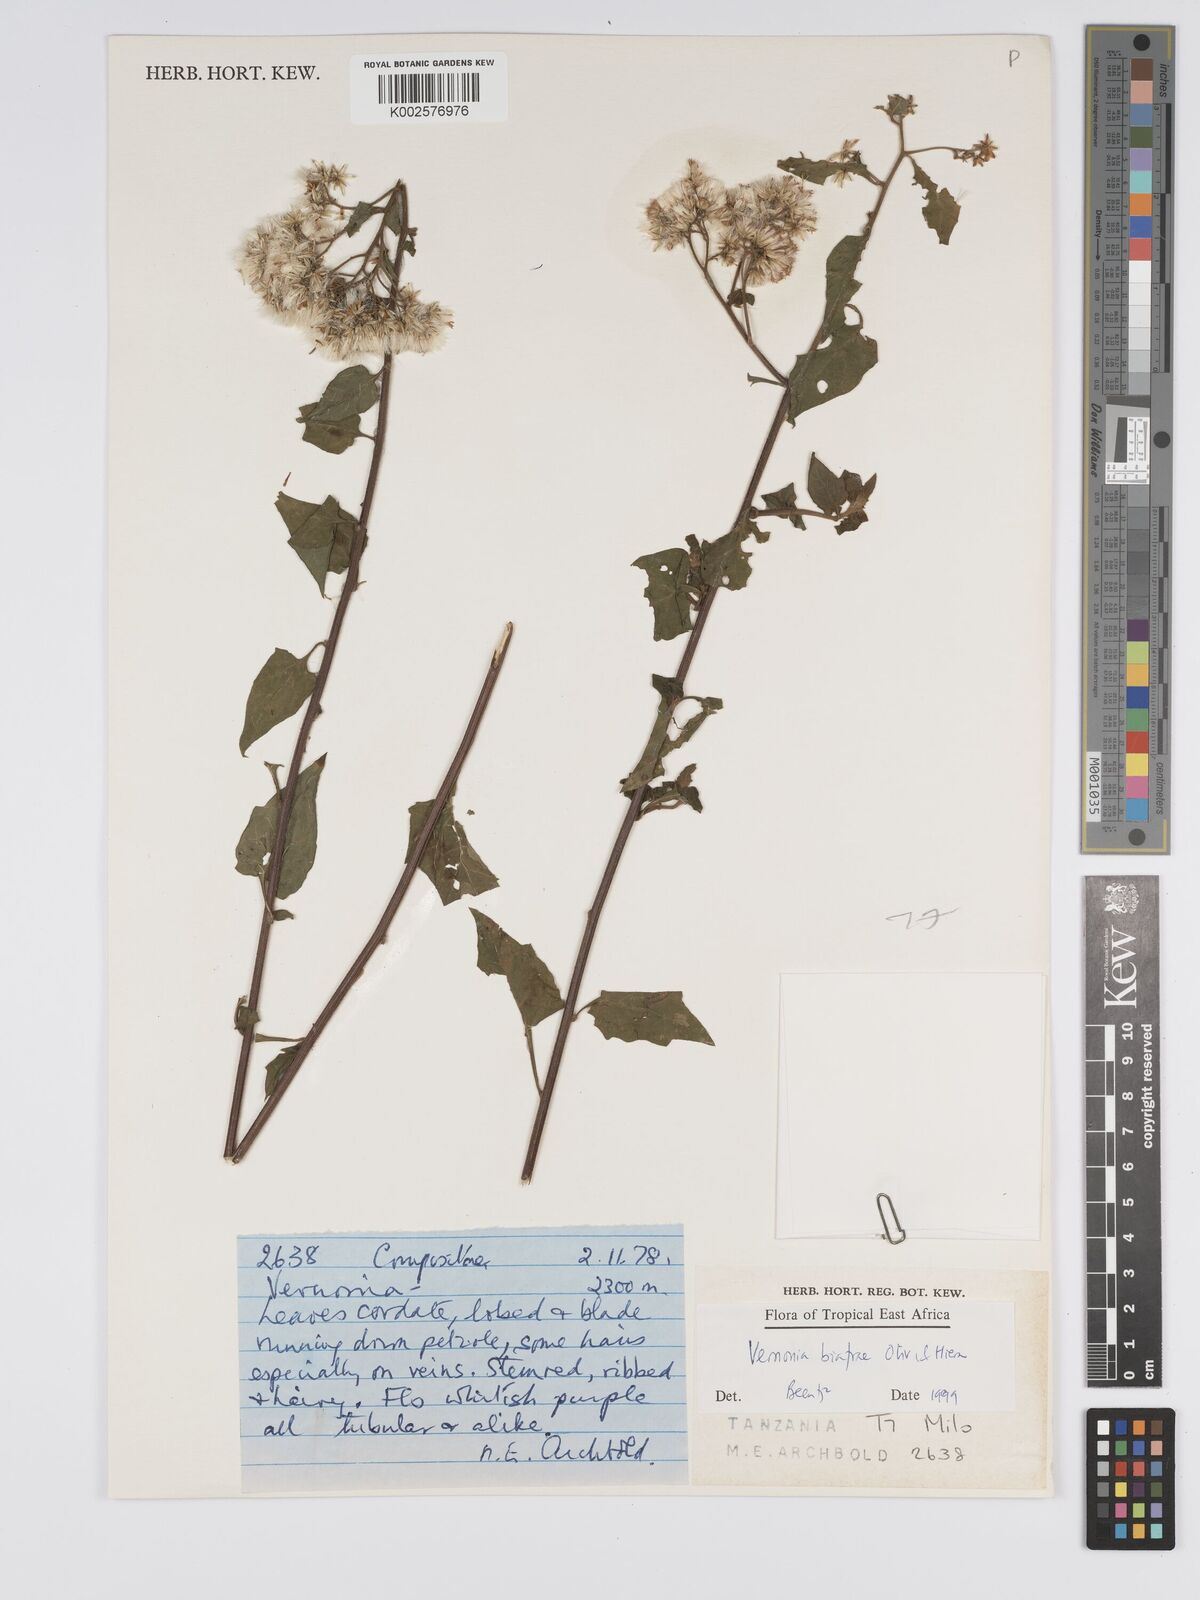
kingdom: Plantae
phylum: Tracheophyta
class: Magnoliopsida
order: Asterales
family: Asteraceae
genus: Distephanus
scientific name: Distephanus biafrae
